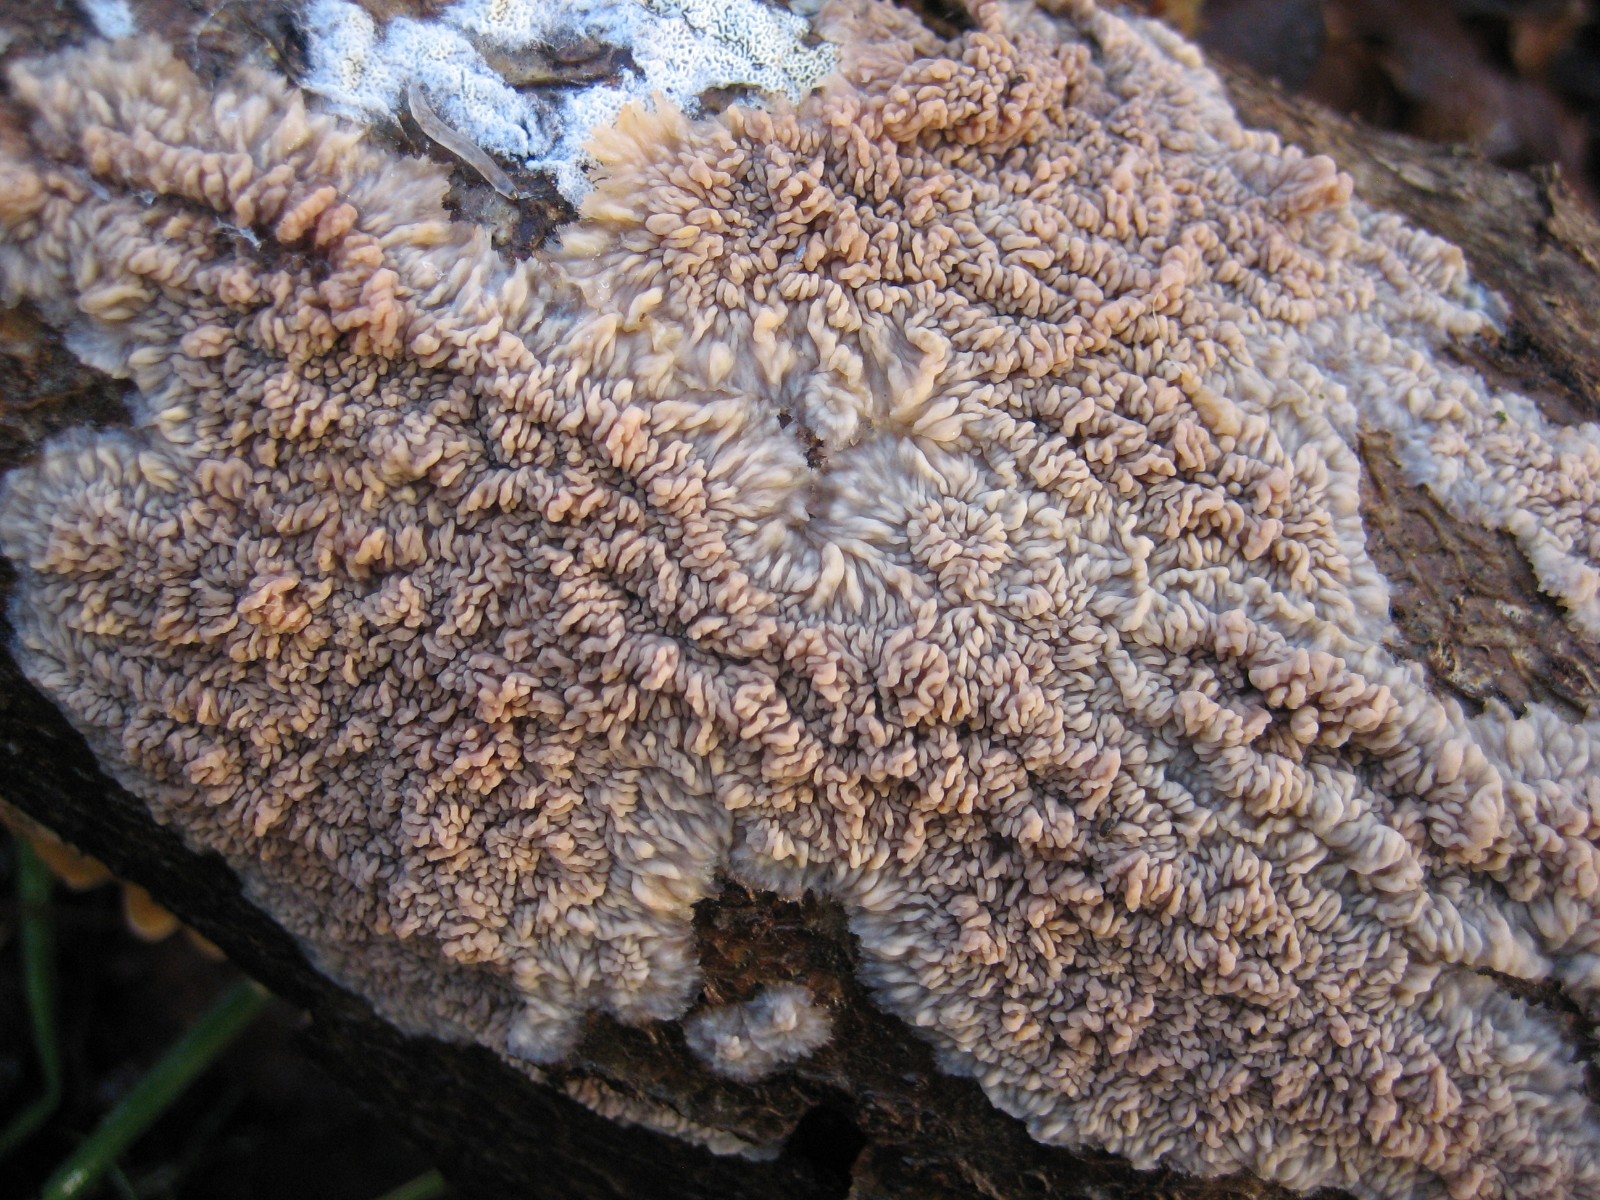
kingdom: Fungi
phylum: Basidiomycota
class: Agaricomycetes
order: Polyporales
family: Meruliaceae
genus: Phlebia
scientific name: Phlebia radiata
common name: stråle-åresvamp
